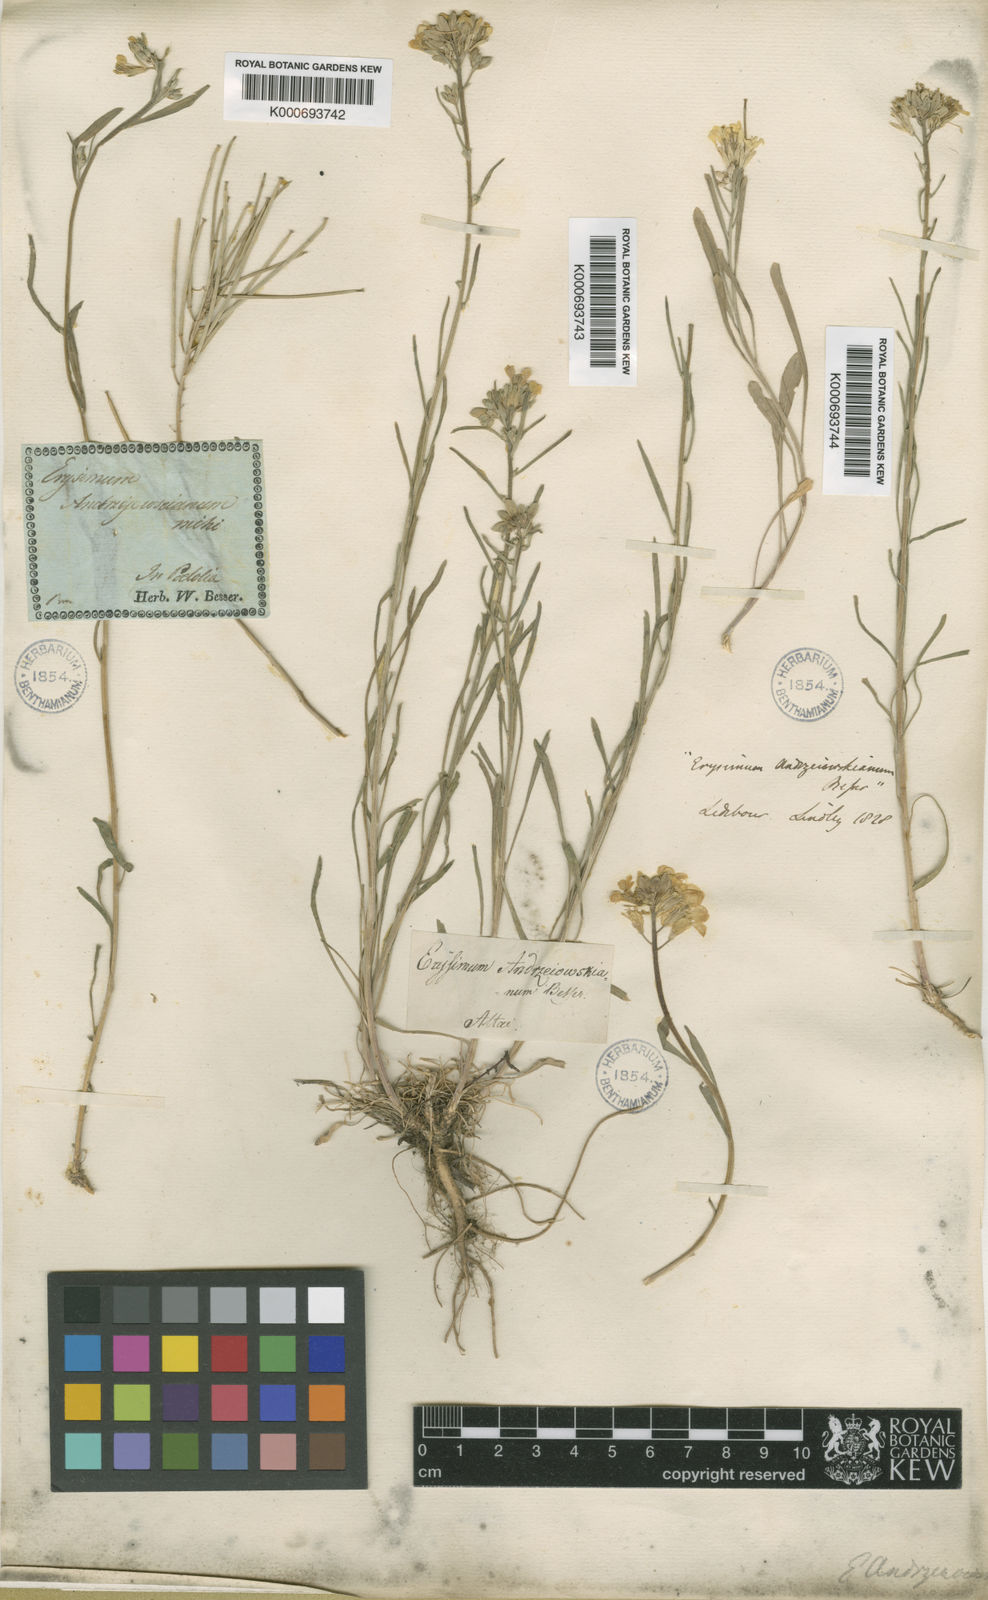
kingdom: Plantae
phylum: Tracheophyta
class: Magnoliopsida
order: Brassicales
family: Brassicaceae
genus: Erysimum
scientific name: Erysimum diffusum
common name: Diffuse wallflower
